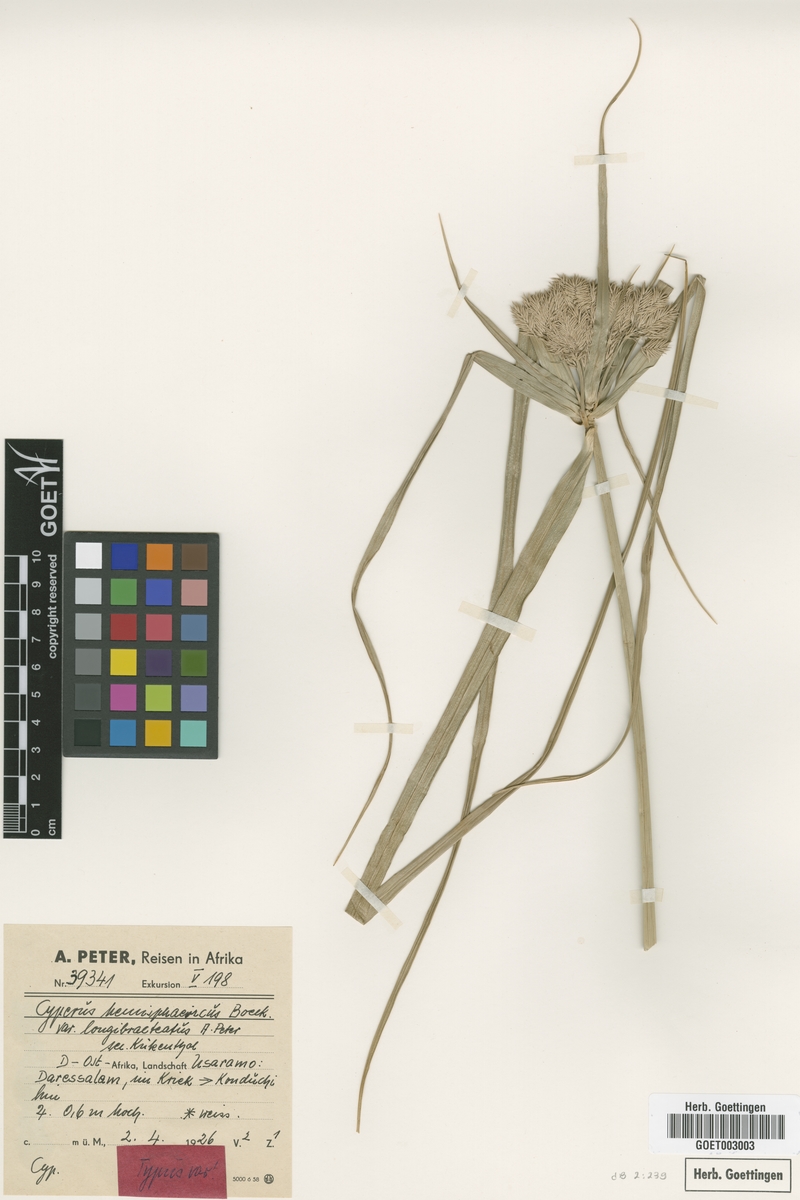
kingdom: Plantae
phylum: Tracheophyta
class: Liliopsida
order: Poales
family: Cyperaceae
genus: Cyperus
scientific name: Cyperus hemisphaericus
